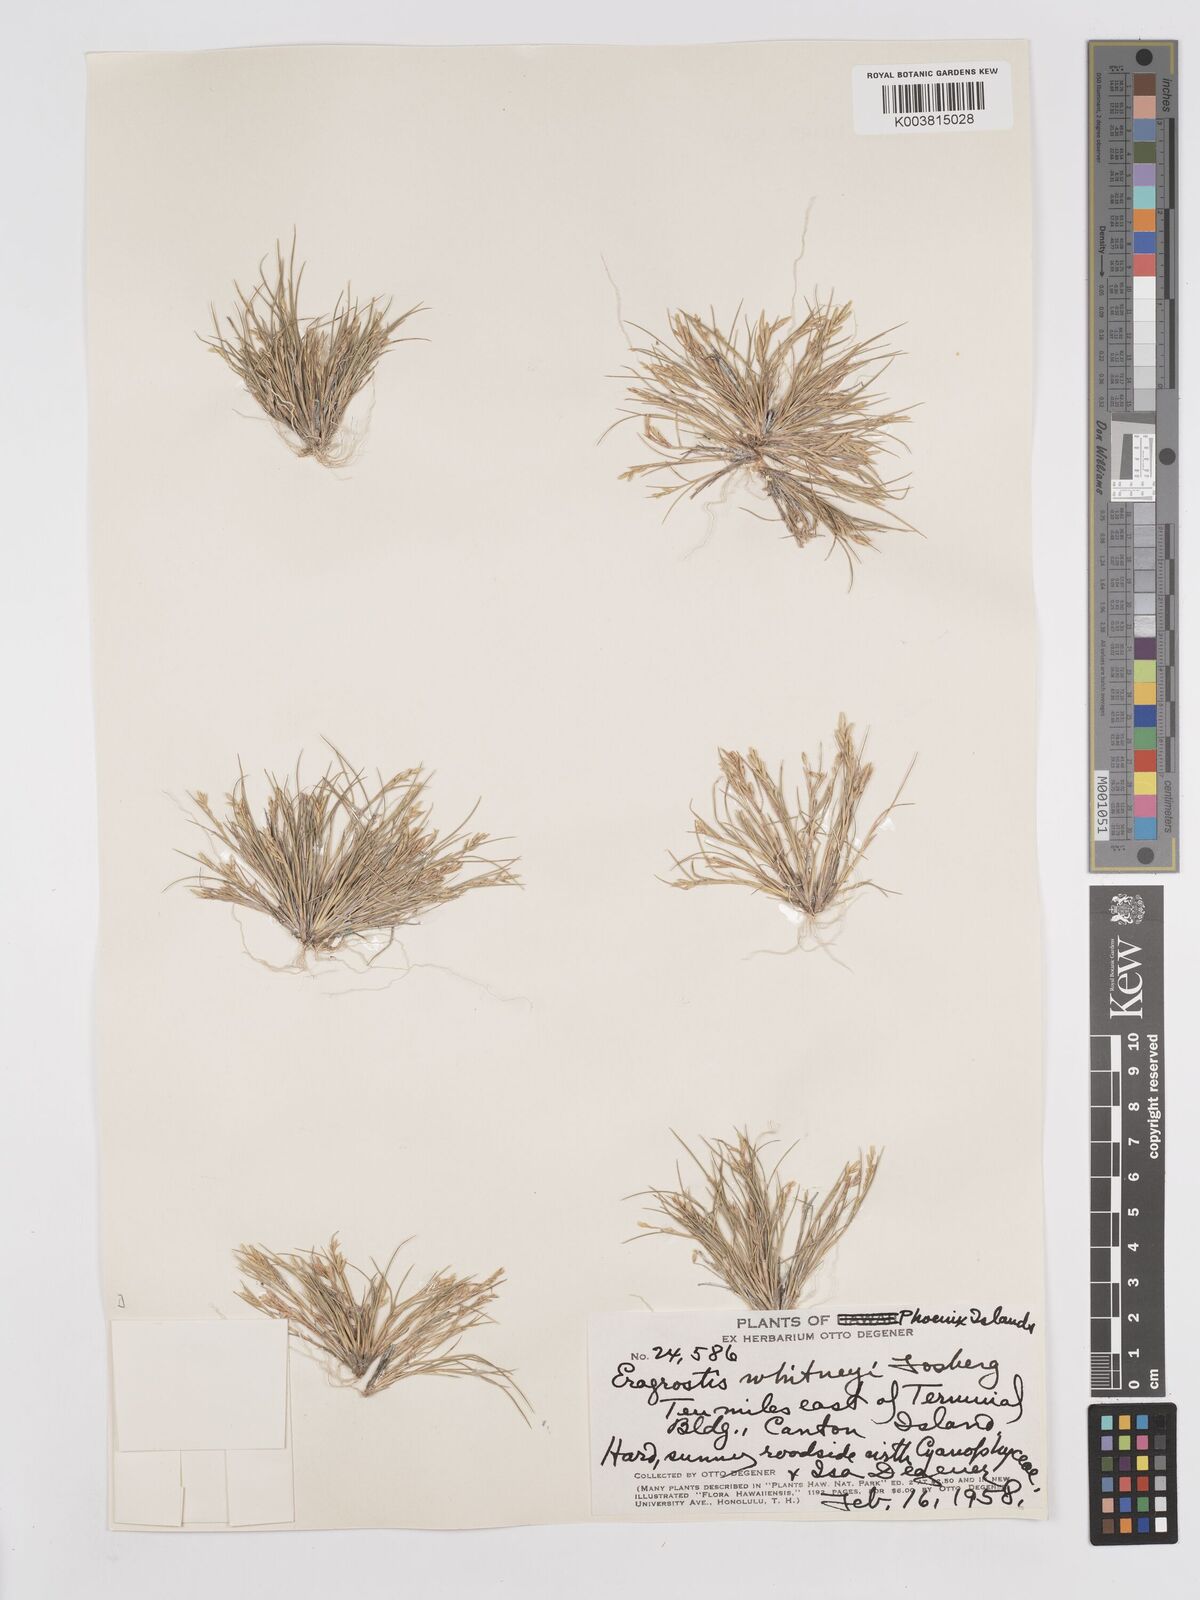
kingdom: Plantae
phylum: Tracheophyta
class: Liliopsida
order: Poales
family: Poaceae
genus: Eragrostis
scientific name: Eragrostis paupera
